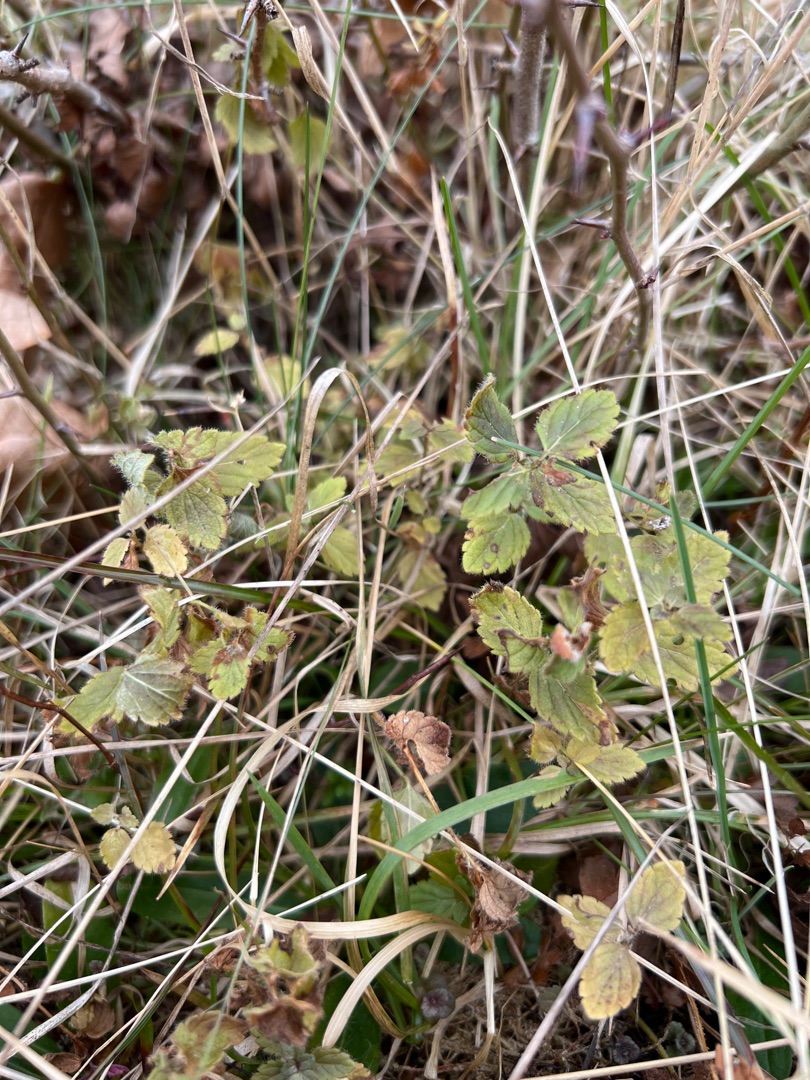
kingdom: Plantae
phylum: Tracheophyta
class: Magnoliopsida
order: Lamiales
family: Plantaginaceae
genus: Veronica
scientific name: Veronica chamaedrys
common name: Tveskægget ærenpris
